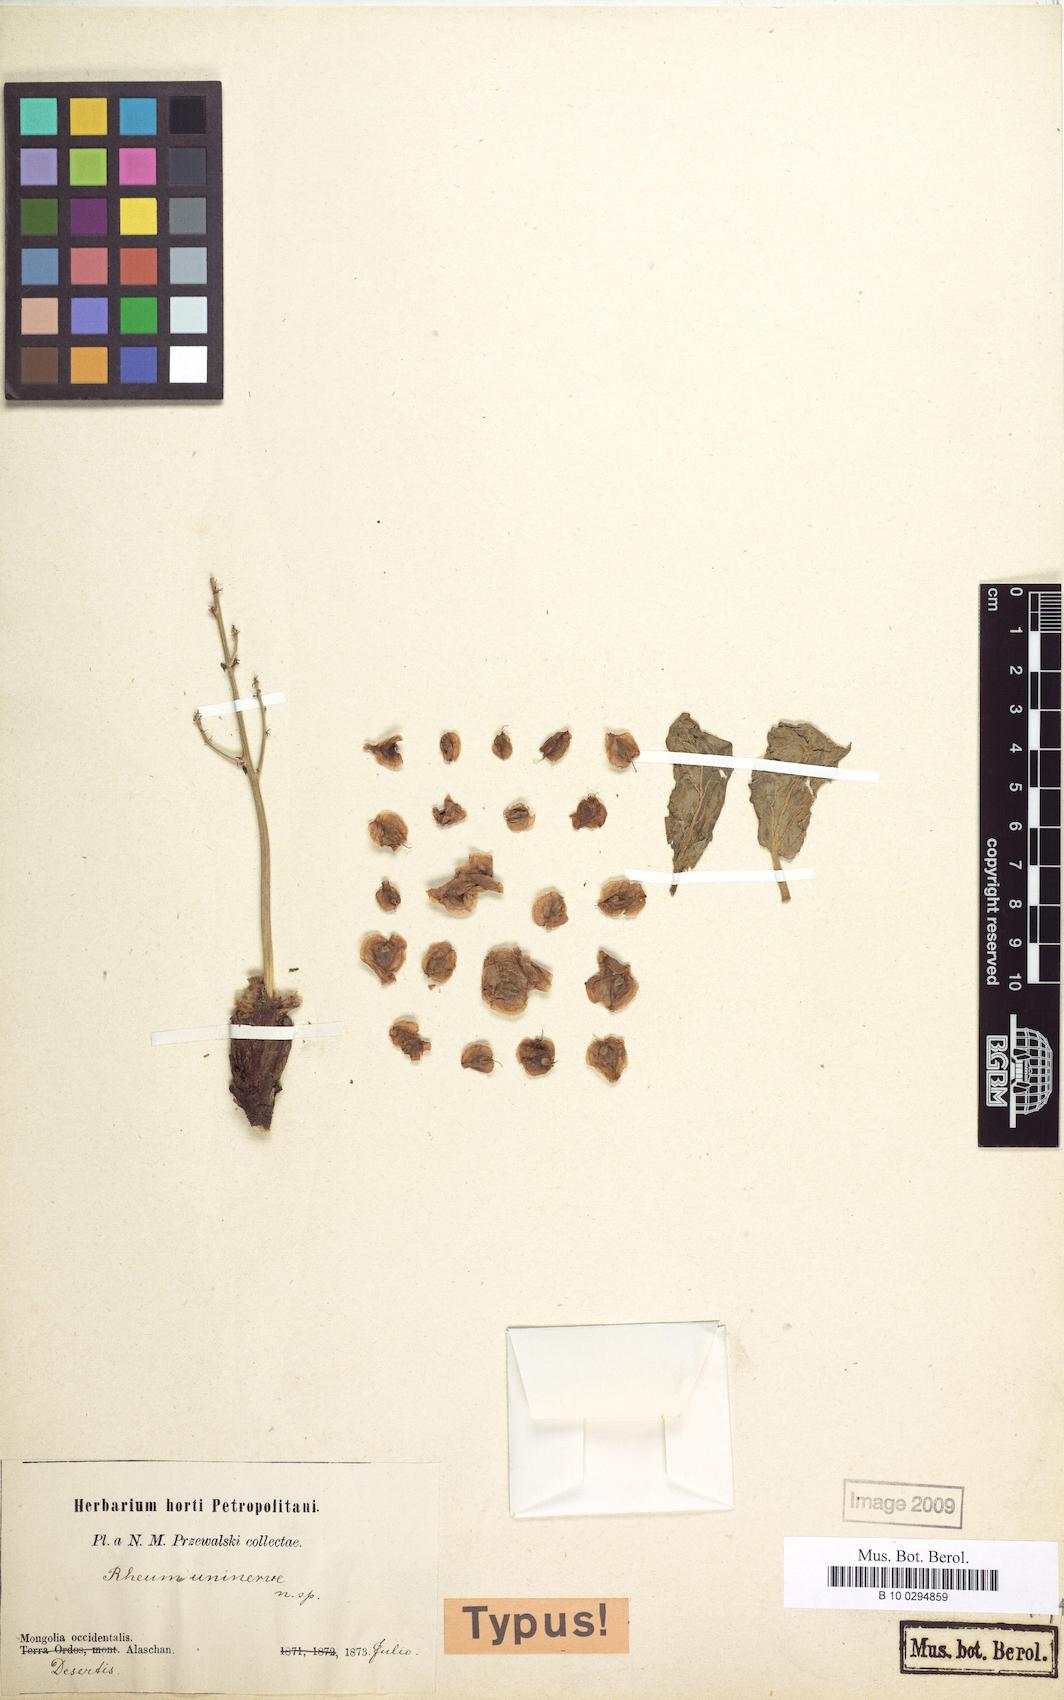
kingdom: Plantae
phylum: Tracheophyta
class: Magnoliopsida
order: Caryophyllales
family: Polygonaceae
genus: Rheum
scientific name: Rheum uninerve
